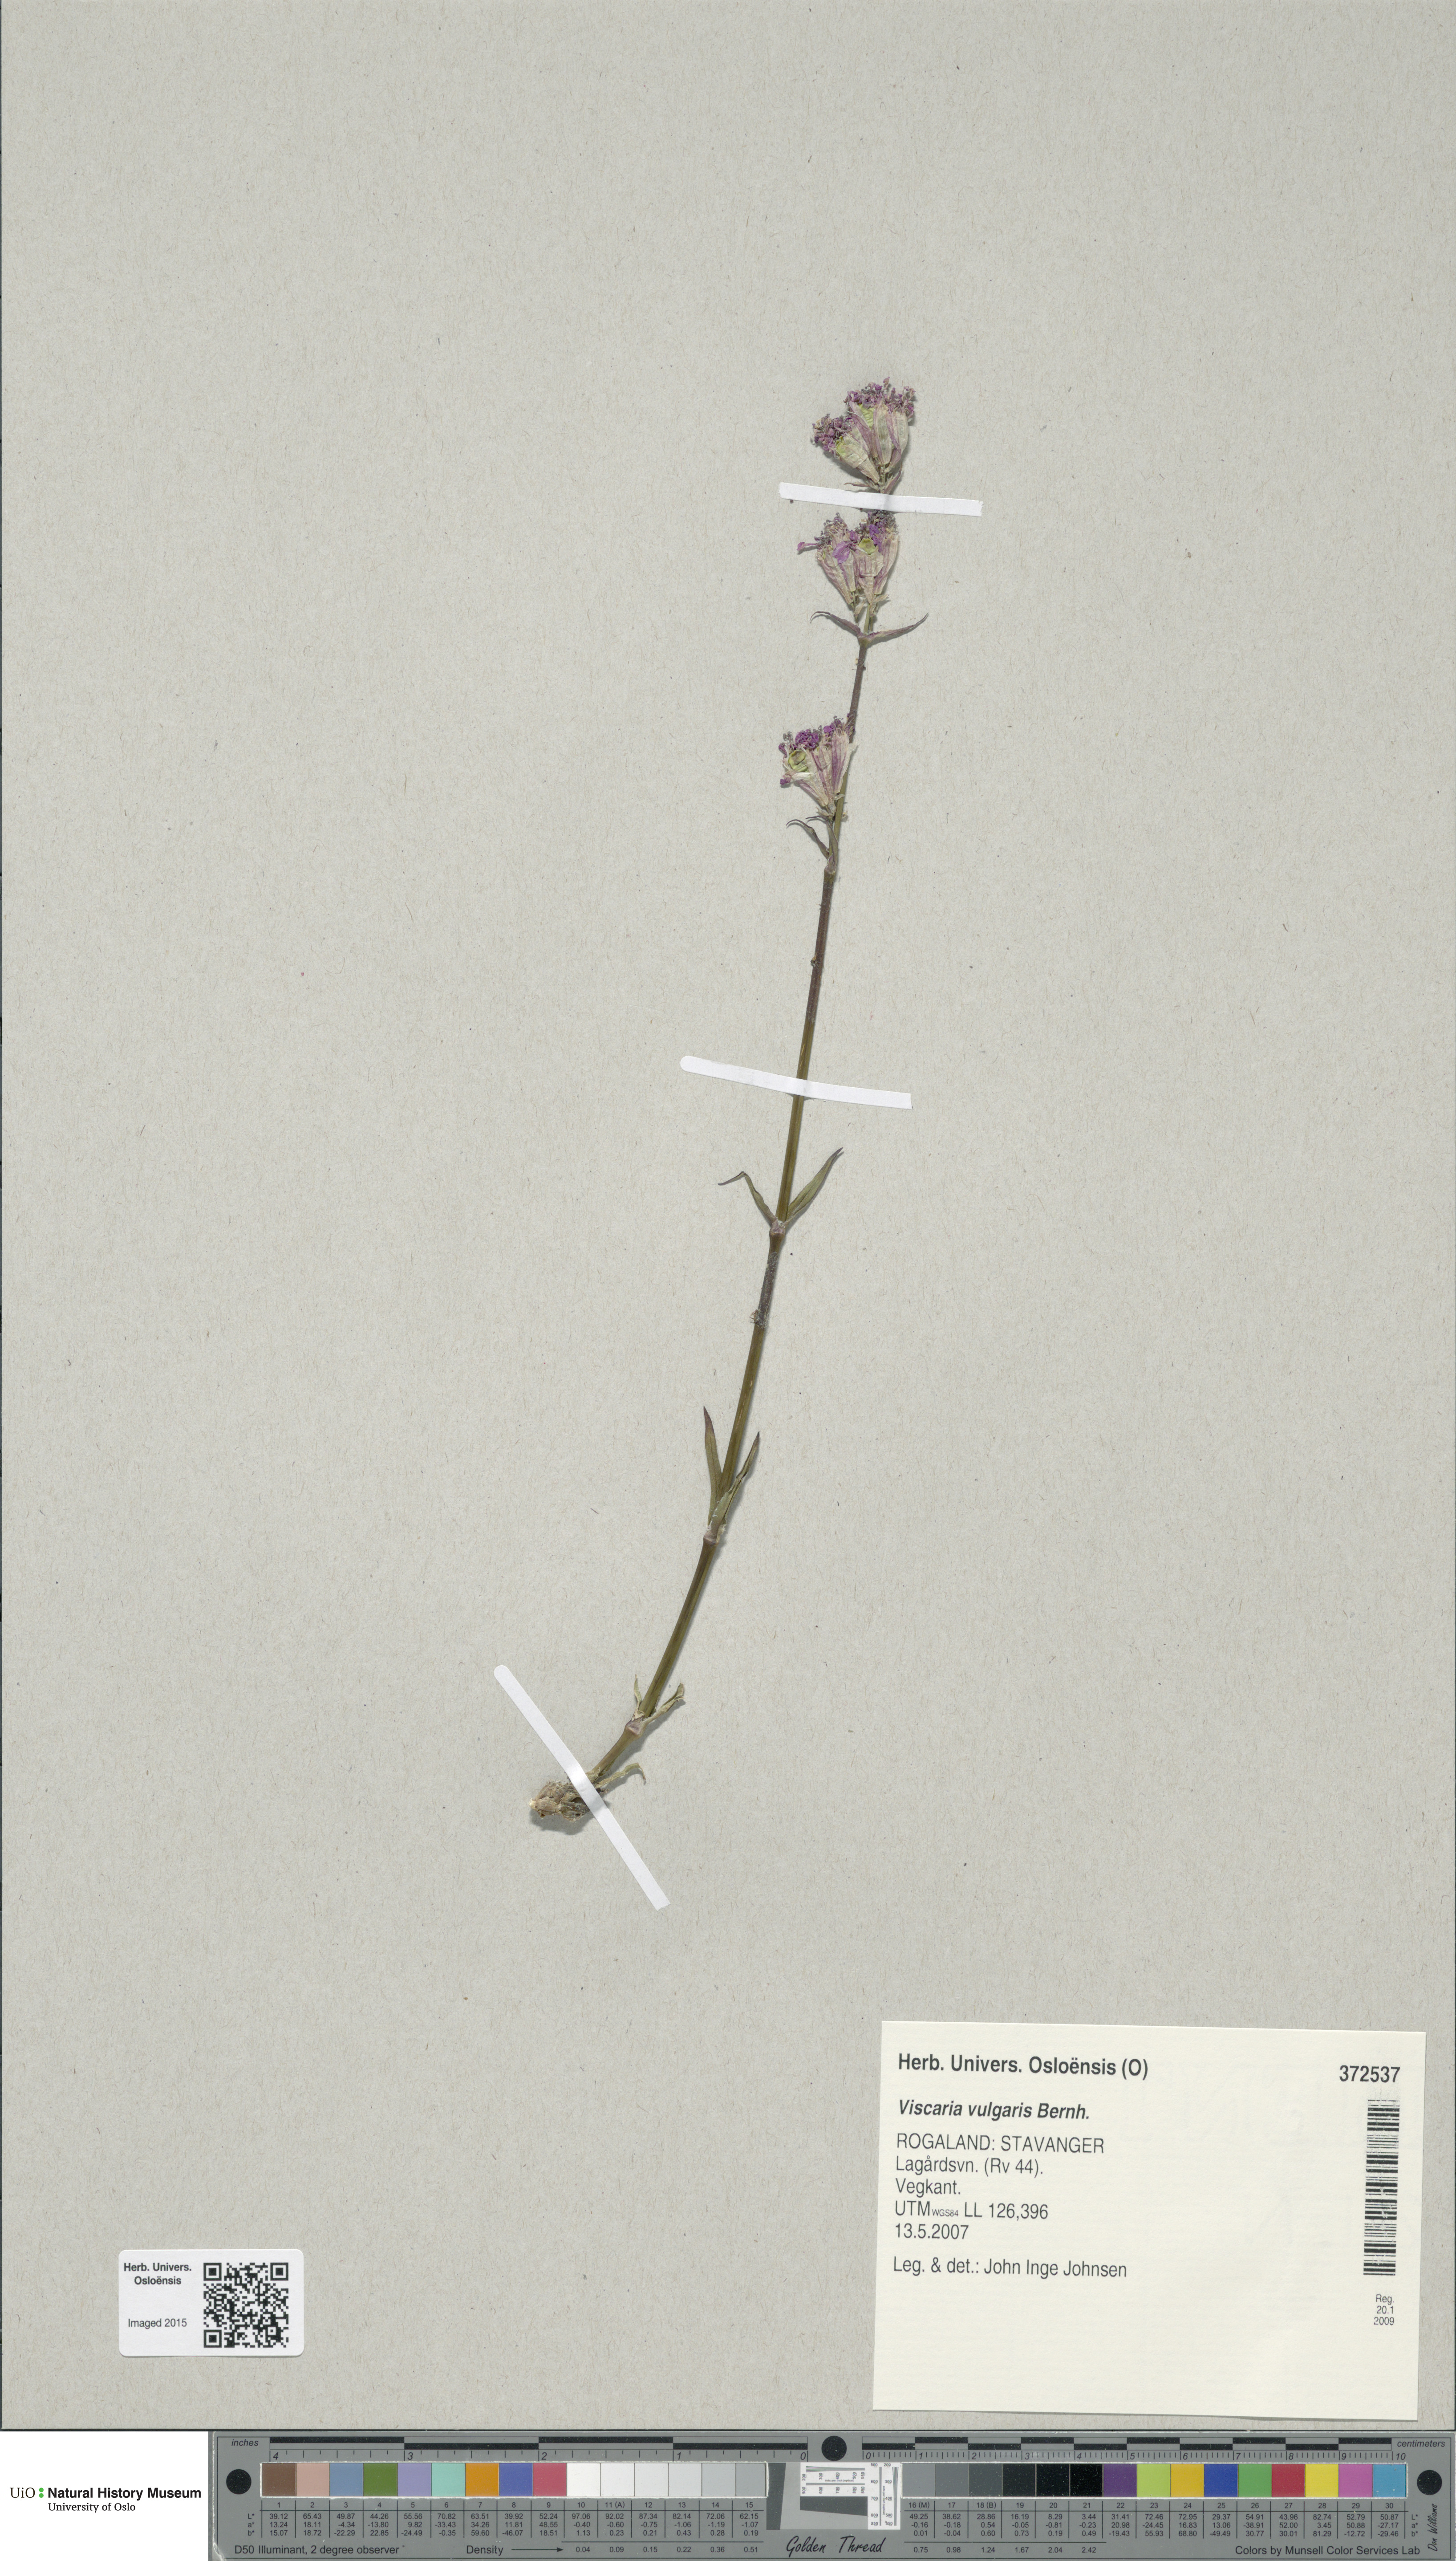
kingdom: Plantae
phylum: Tracheophyta
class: Magnoliopsida
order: Caryophyllales
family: Caryophyllaceae
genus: Viscaria
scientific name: Viscaria vulgaris
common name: Clammy campion
